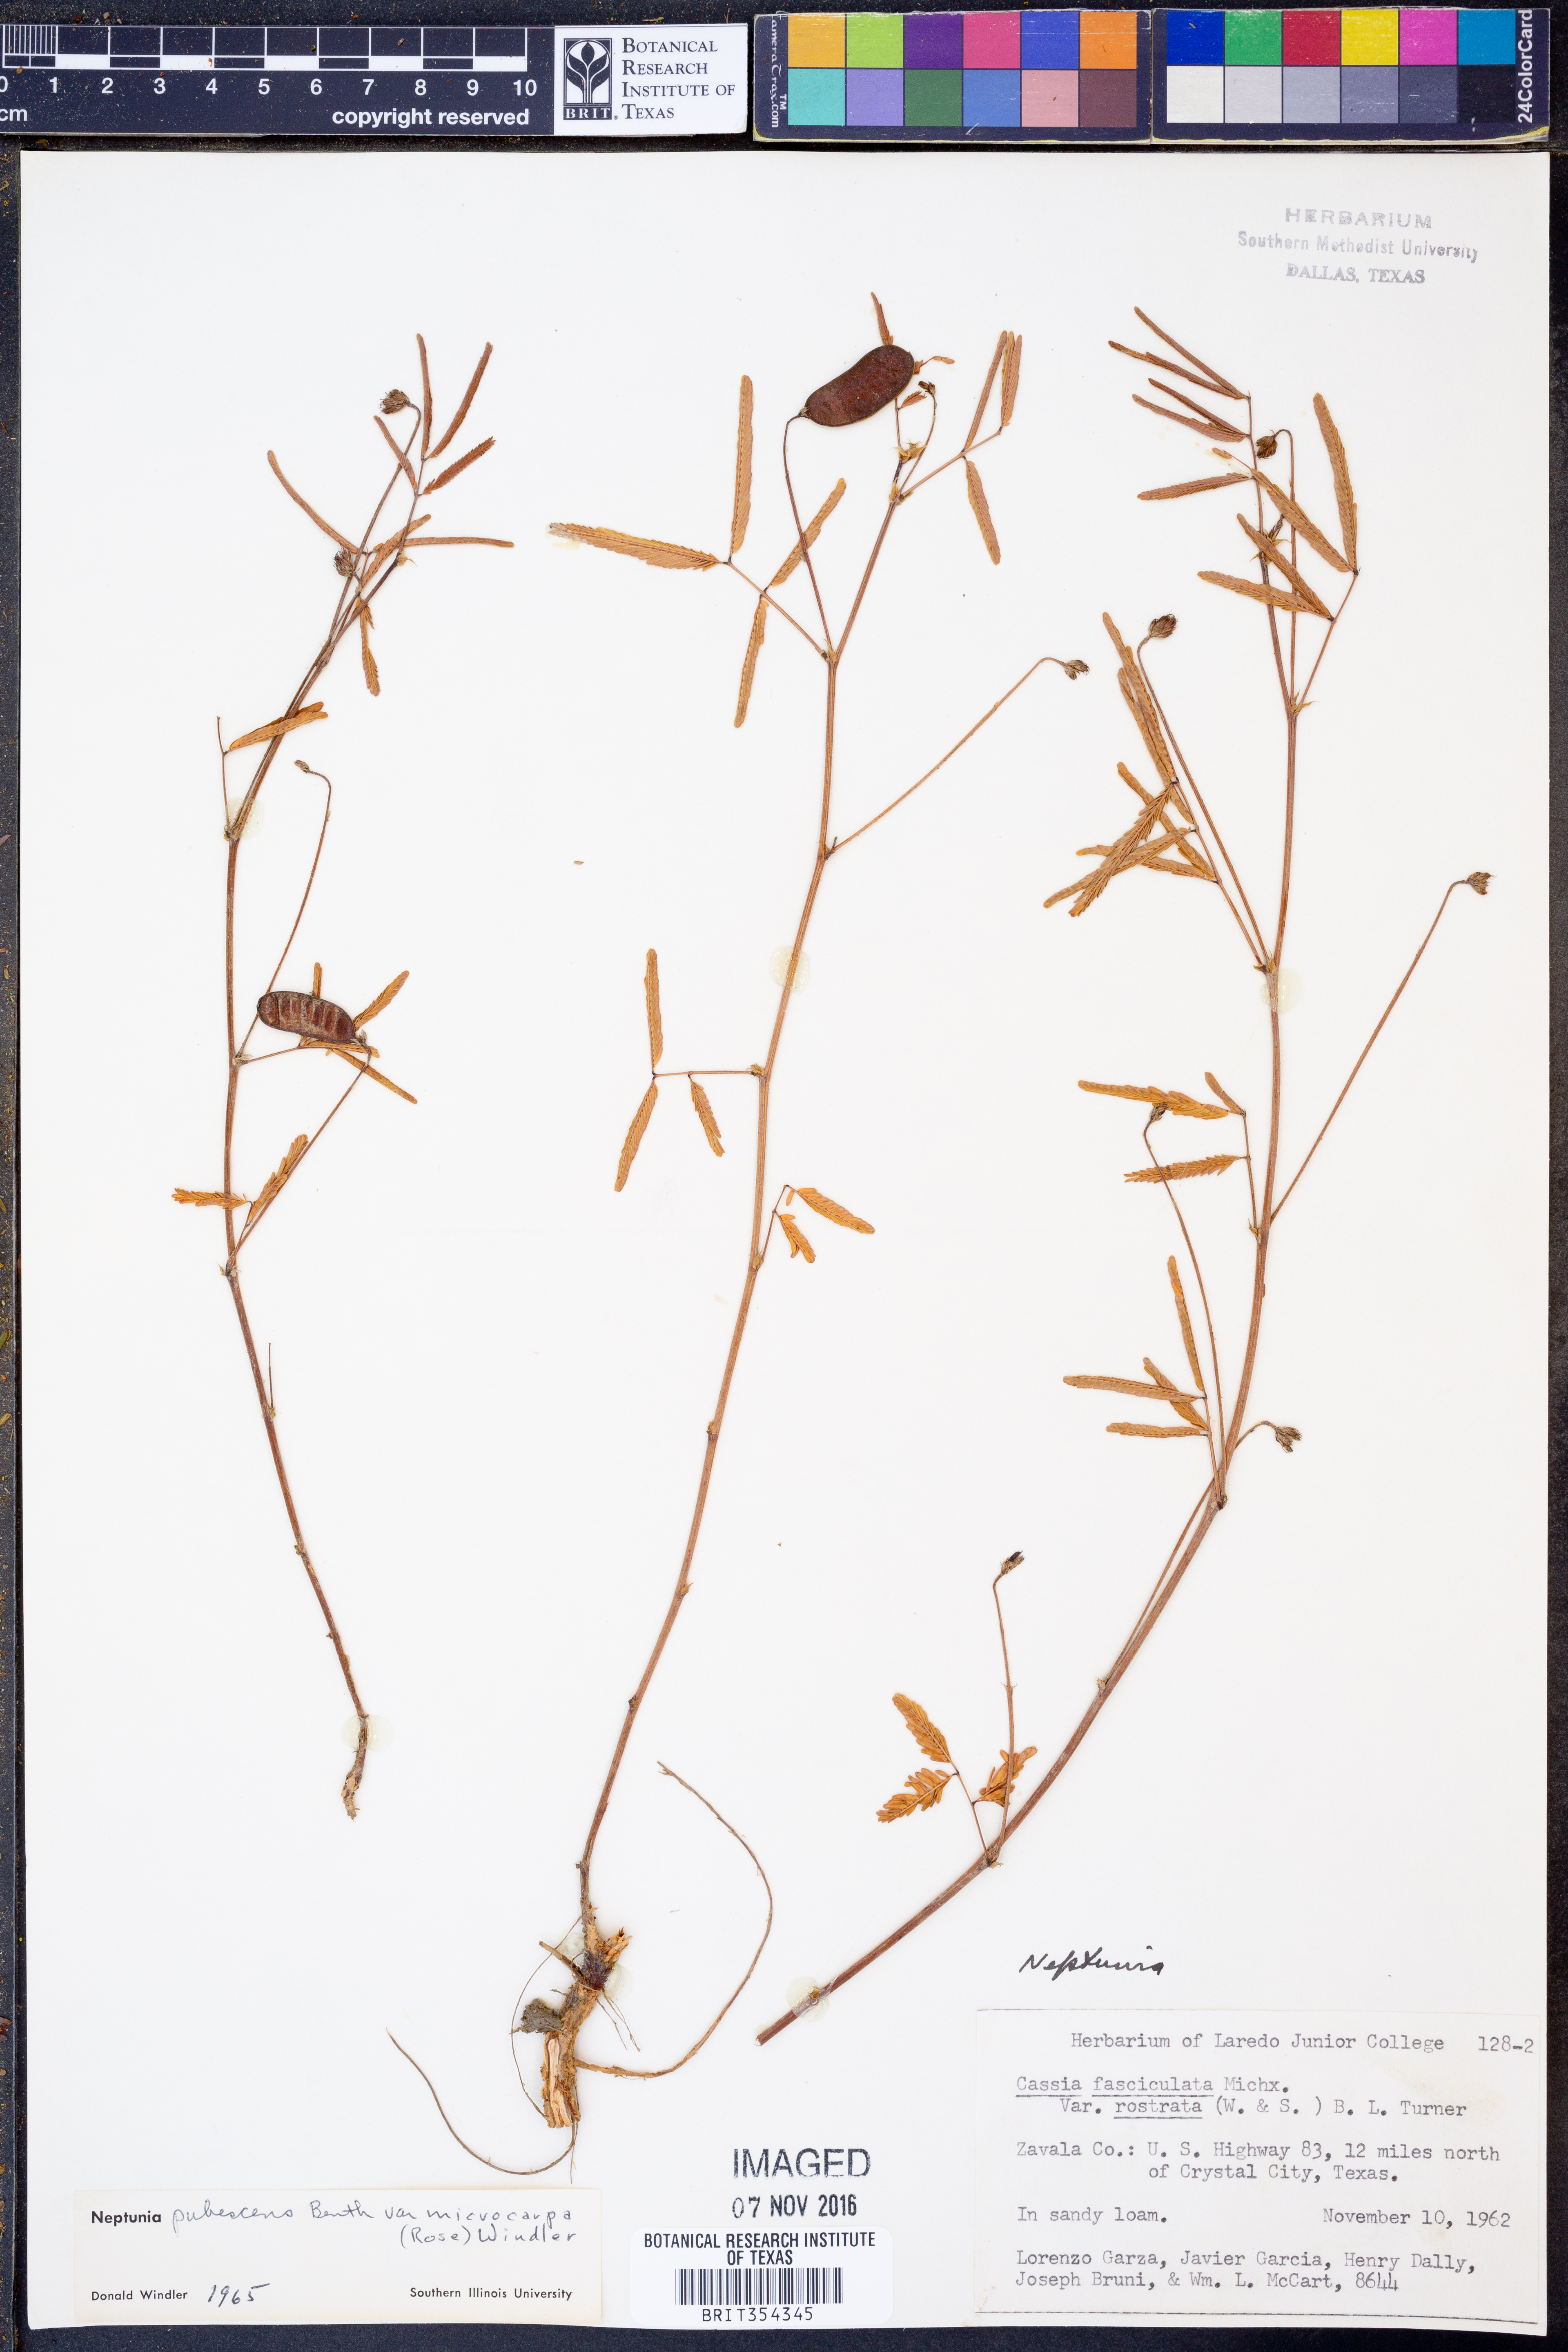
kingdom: Plantae
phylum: Tracheophyta
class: Magnoliopsida
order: Fabales
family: Fabaceae
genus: Neptunia
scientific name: Neptunia pubescens
